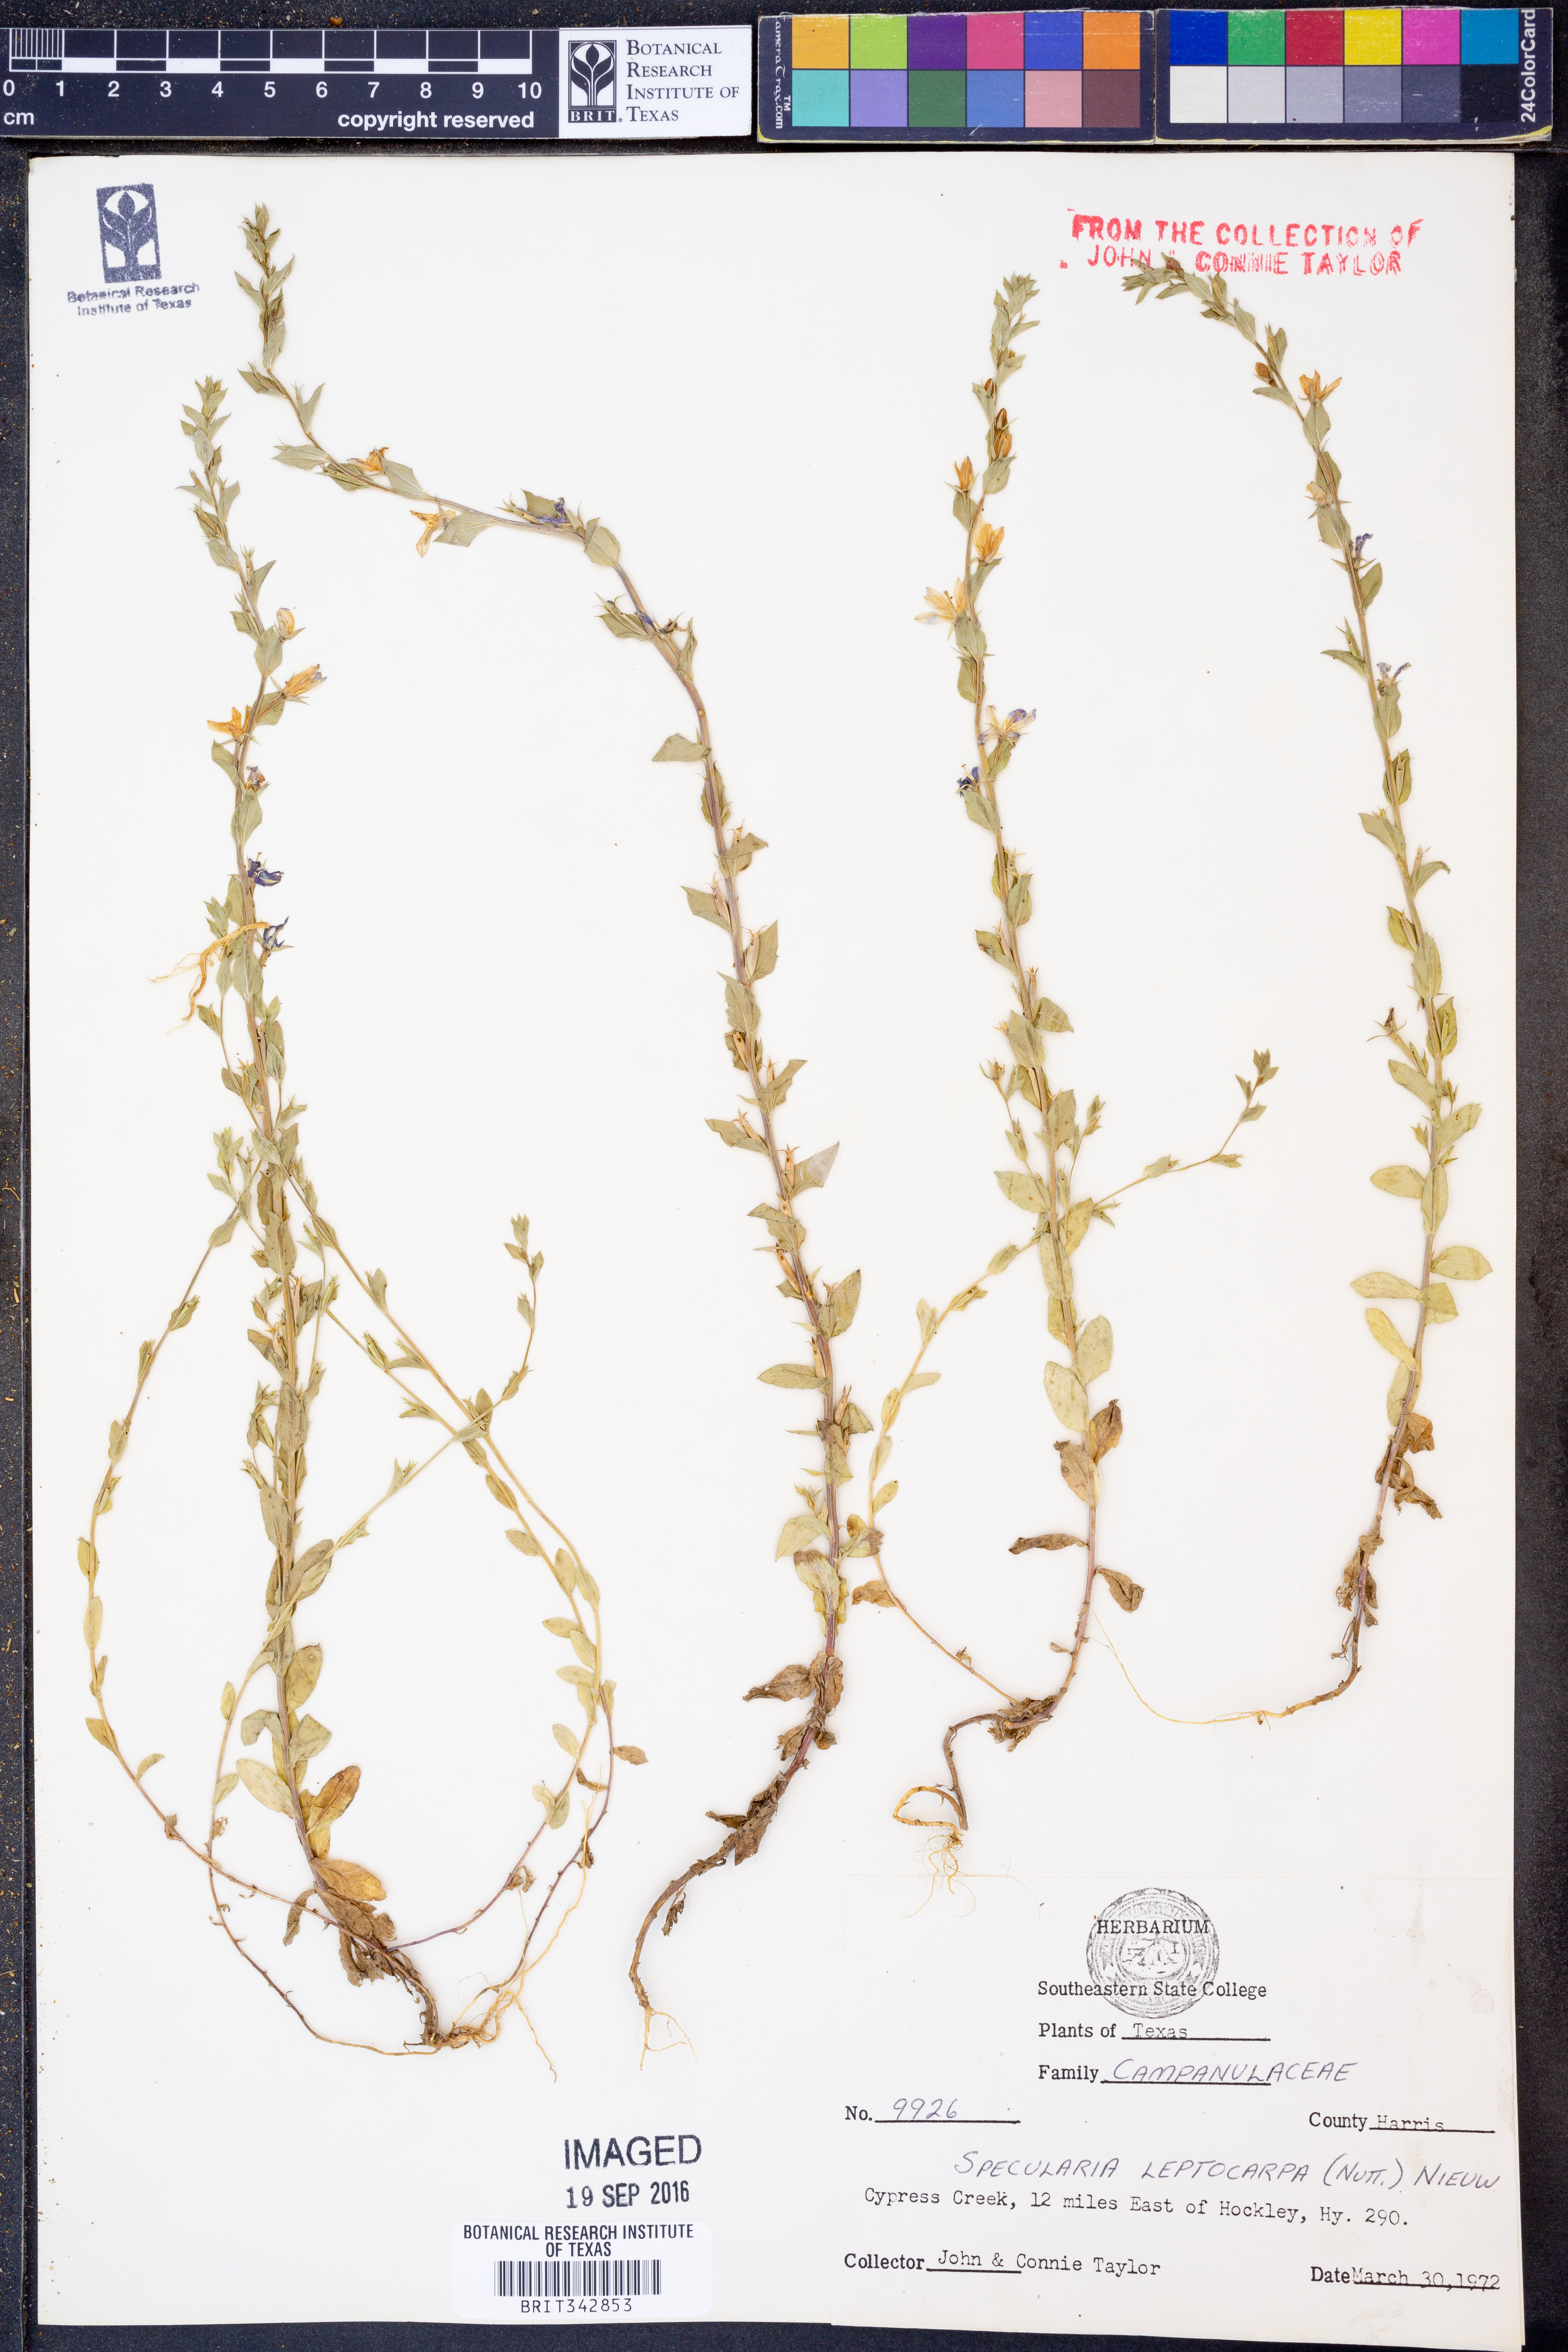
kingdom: Plantae
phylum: Tracheophyta
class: Magnoliopsida
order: Asterales
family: Campanulaceae
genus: Triodanis
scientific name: Triodanis leptocarpa
